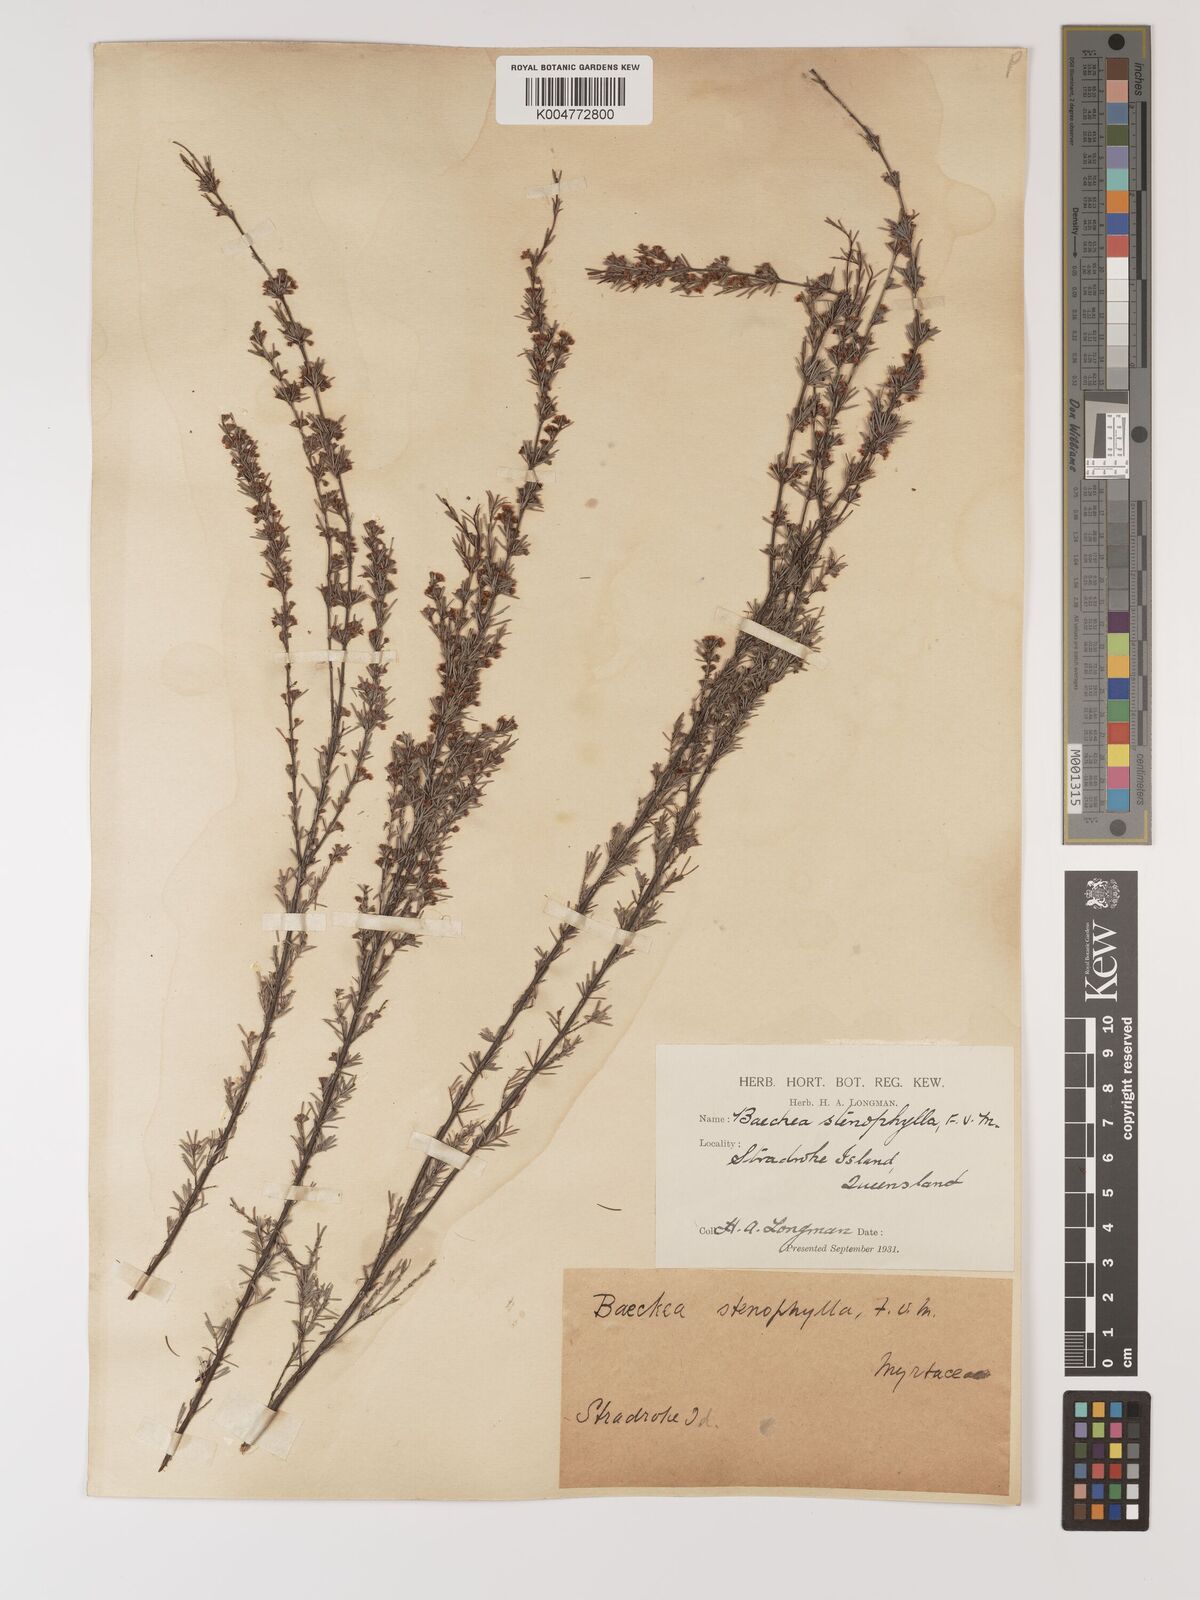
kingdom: Plantae
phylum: Tracheophyta
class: Magnoliopsida
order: Myrtales
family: Myrtaceae
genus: Baeckea
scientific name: Baeckea frutescens
